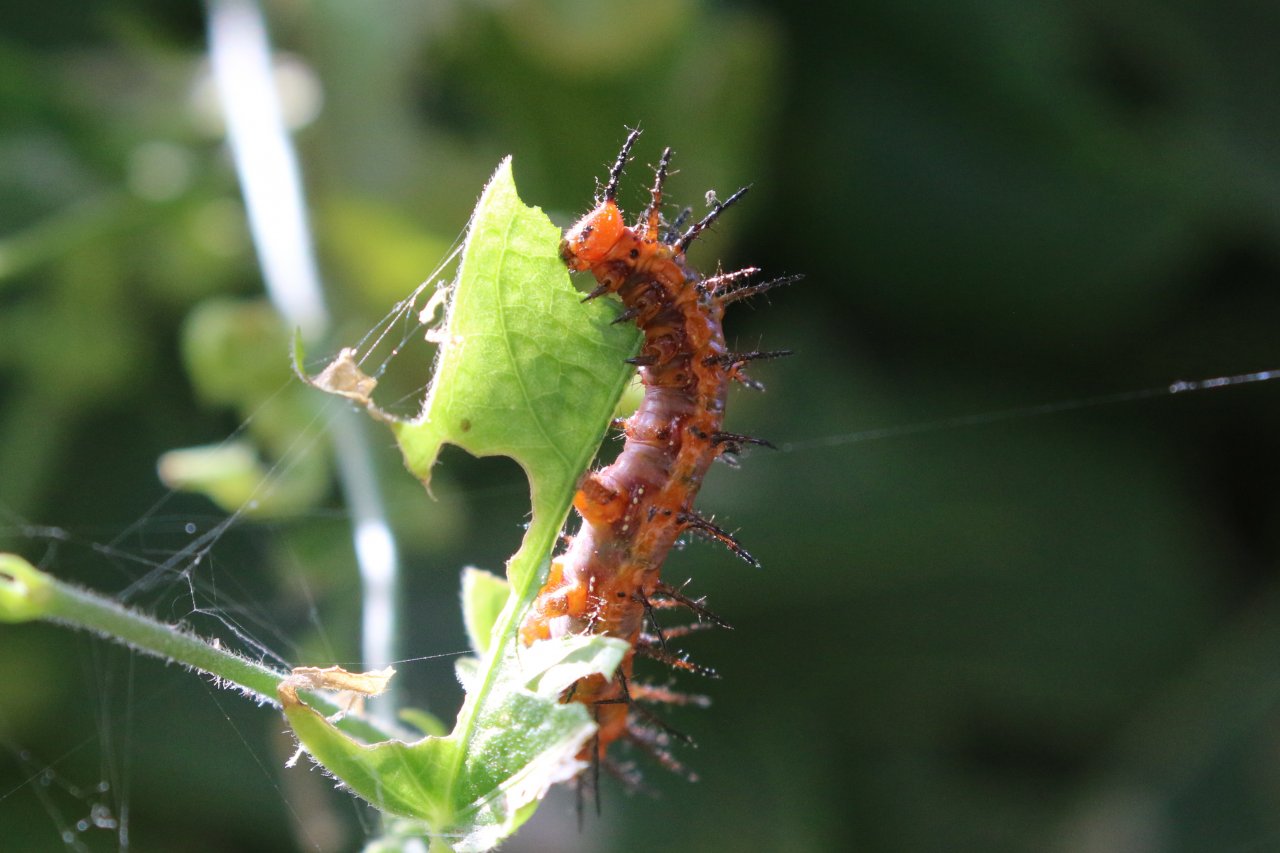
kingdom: Animalia
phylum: Arthropoda
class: Insecta
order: Lepidoptera
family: Nymphalidae
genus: Dione
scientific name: Dione vanillae
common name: Gulf Fritillary
